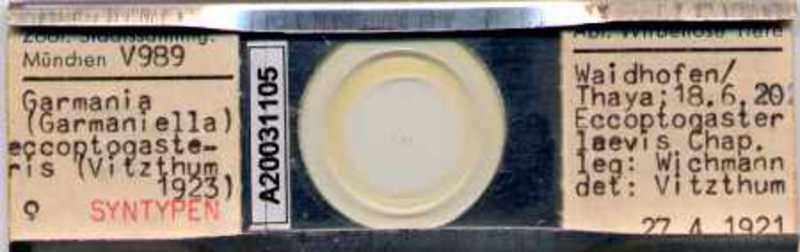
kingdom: Animalia
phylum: Arthropoda
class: Arachnida
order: Mesostigmata
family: Melicharidae
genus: Proctolaelaps
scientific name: Proctolaelaps eccoptogasteris
